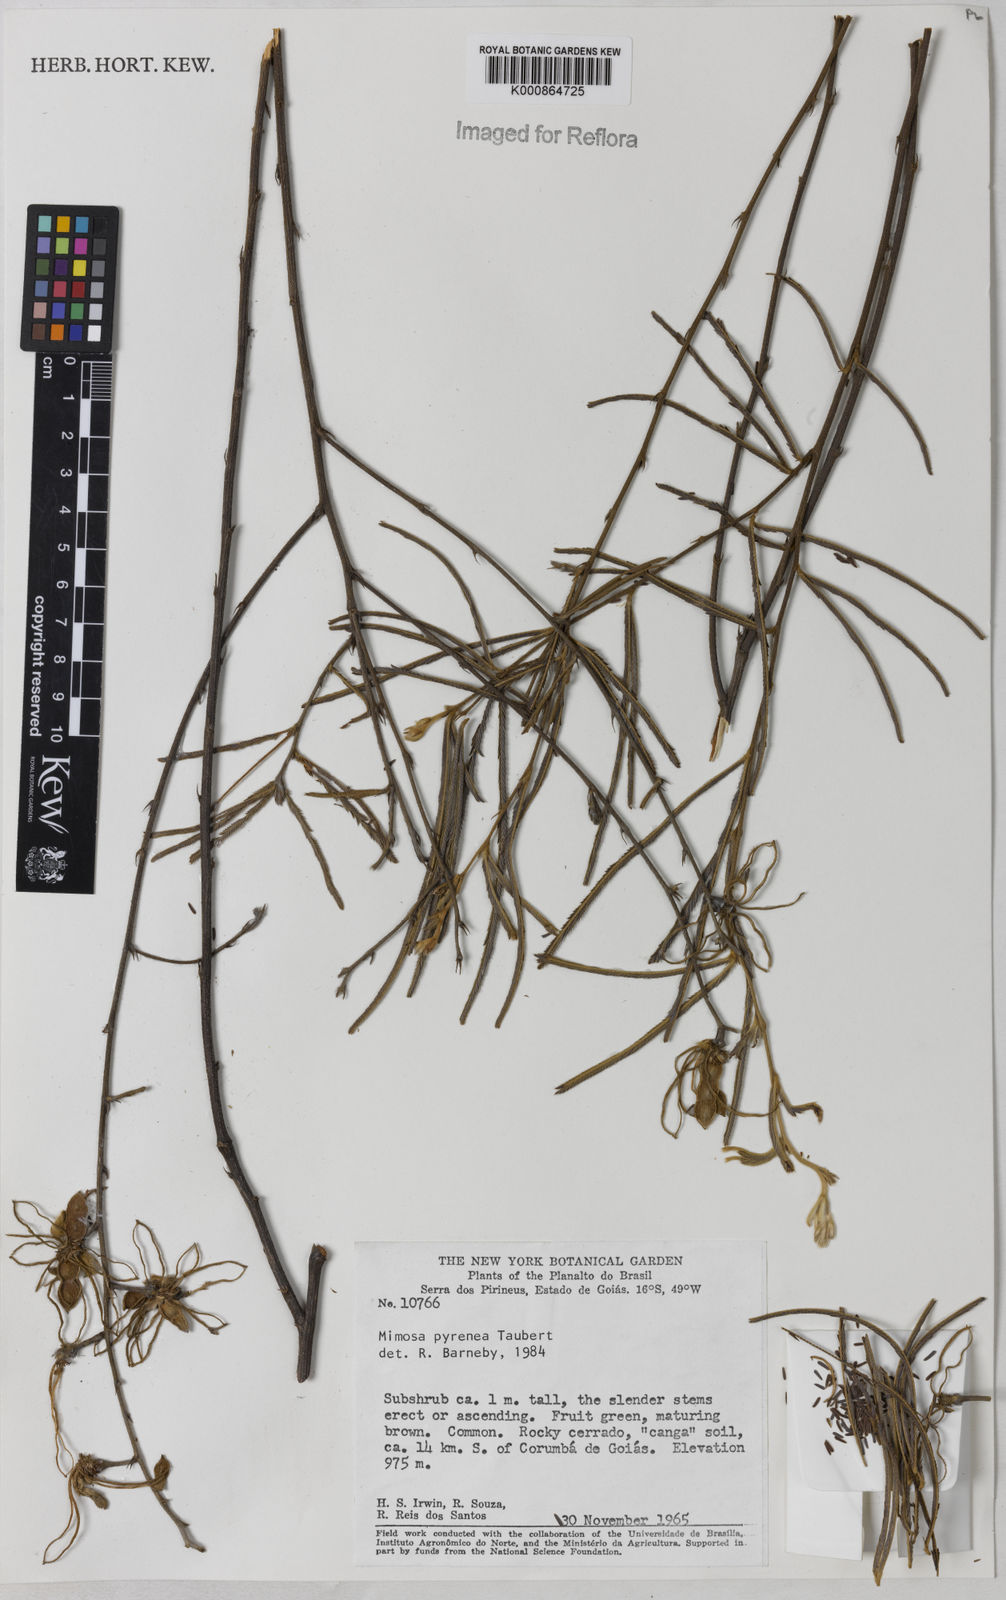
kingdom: Plantae
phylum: Tracheophyta
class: Magnoliopsida
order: Fabales
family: Fabaceae
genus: Mimosa
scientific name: Mimosa pyrenea
